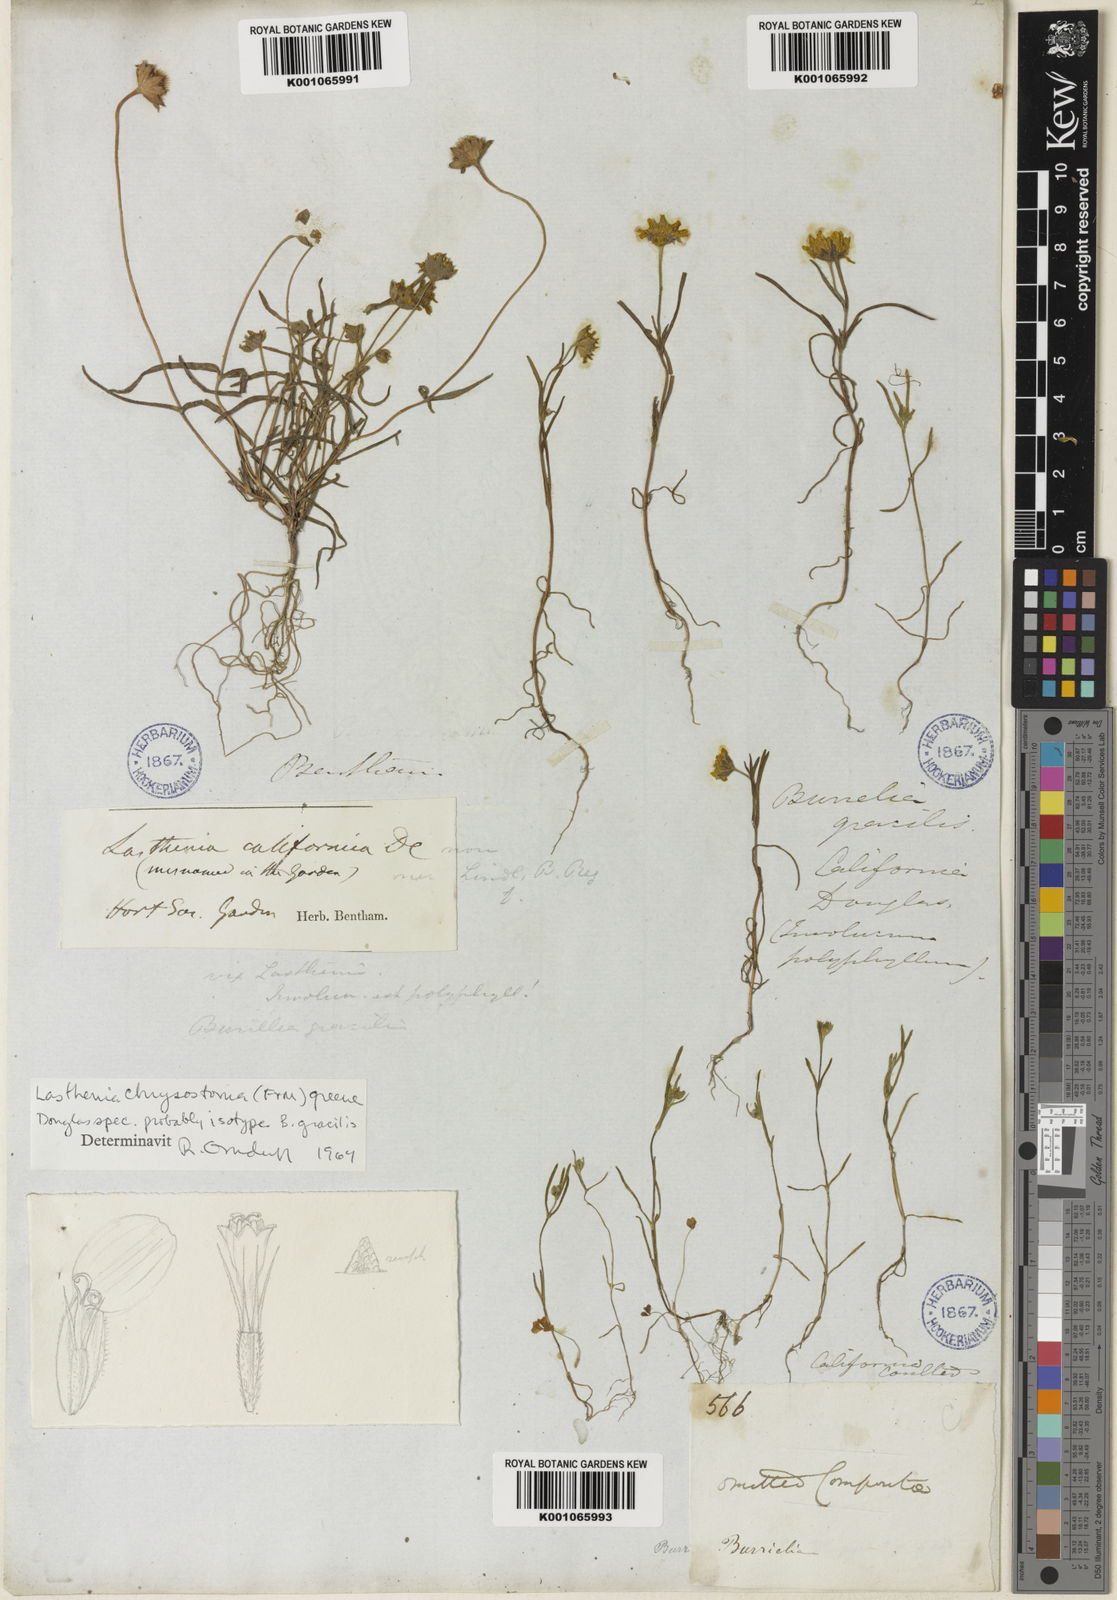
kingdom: Plantae
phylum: Tracheophyta
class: Magnoliopsida
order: Asterales
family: Asteraceae
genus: Lasthenia
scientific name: Lasthenia californica
